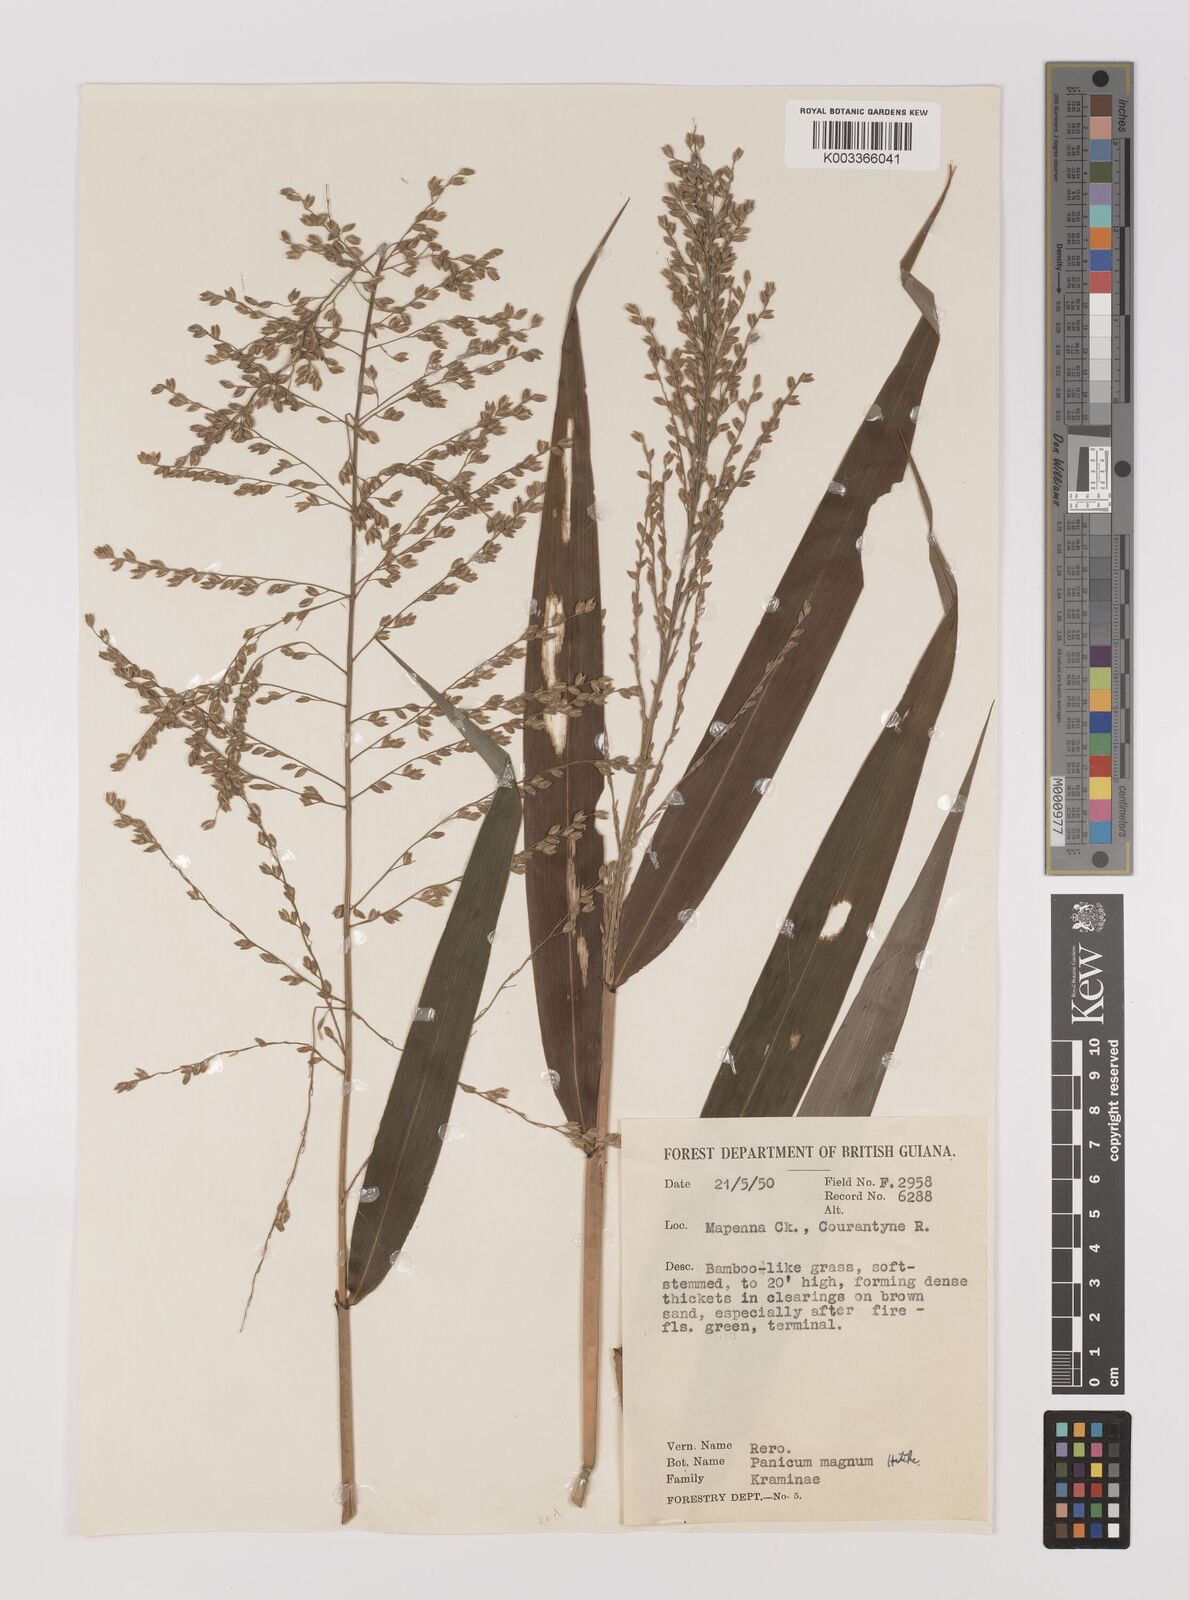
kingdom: Plantae
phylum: Tracheophyta
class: Liliopsida
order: Poales
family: Poaceae
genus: Ichnanthus
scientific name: Ichnanthus breviscrobs
